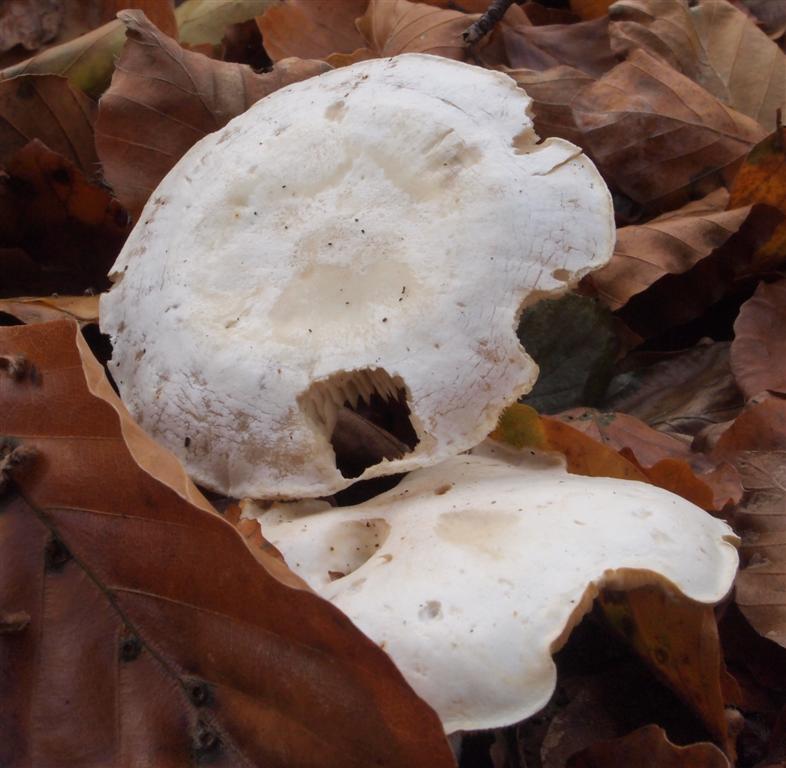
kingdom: Fungi
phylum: Basidiomycota
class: Agaricomycetes
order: Agaricales
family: Tricholomataceae
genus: Clitocybe
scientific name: Clitocybe phyllophila
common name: løv-tragthat
